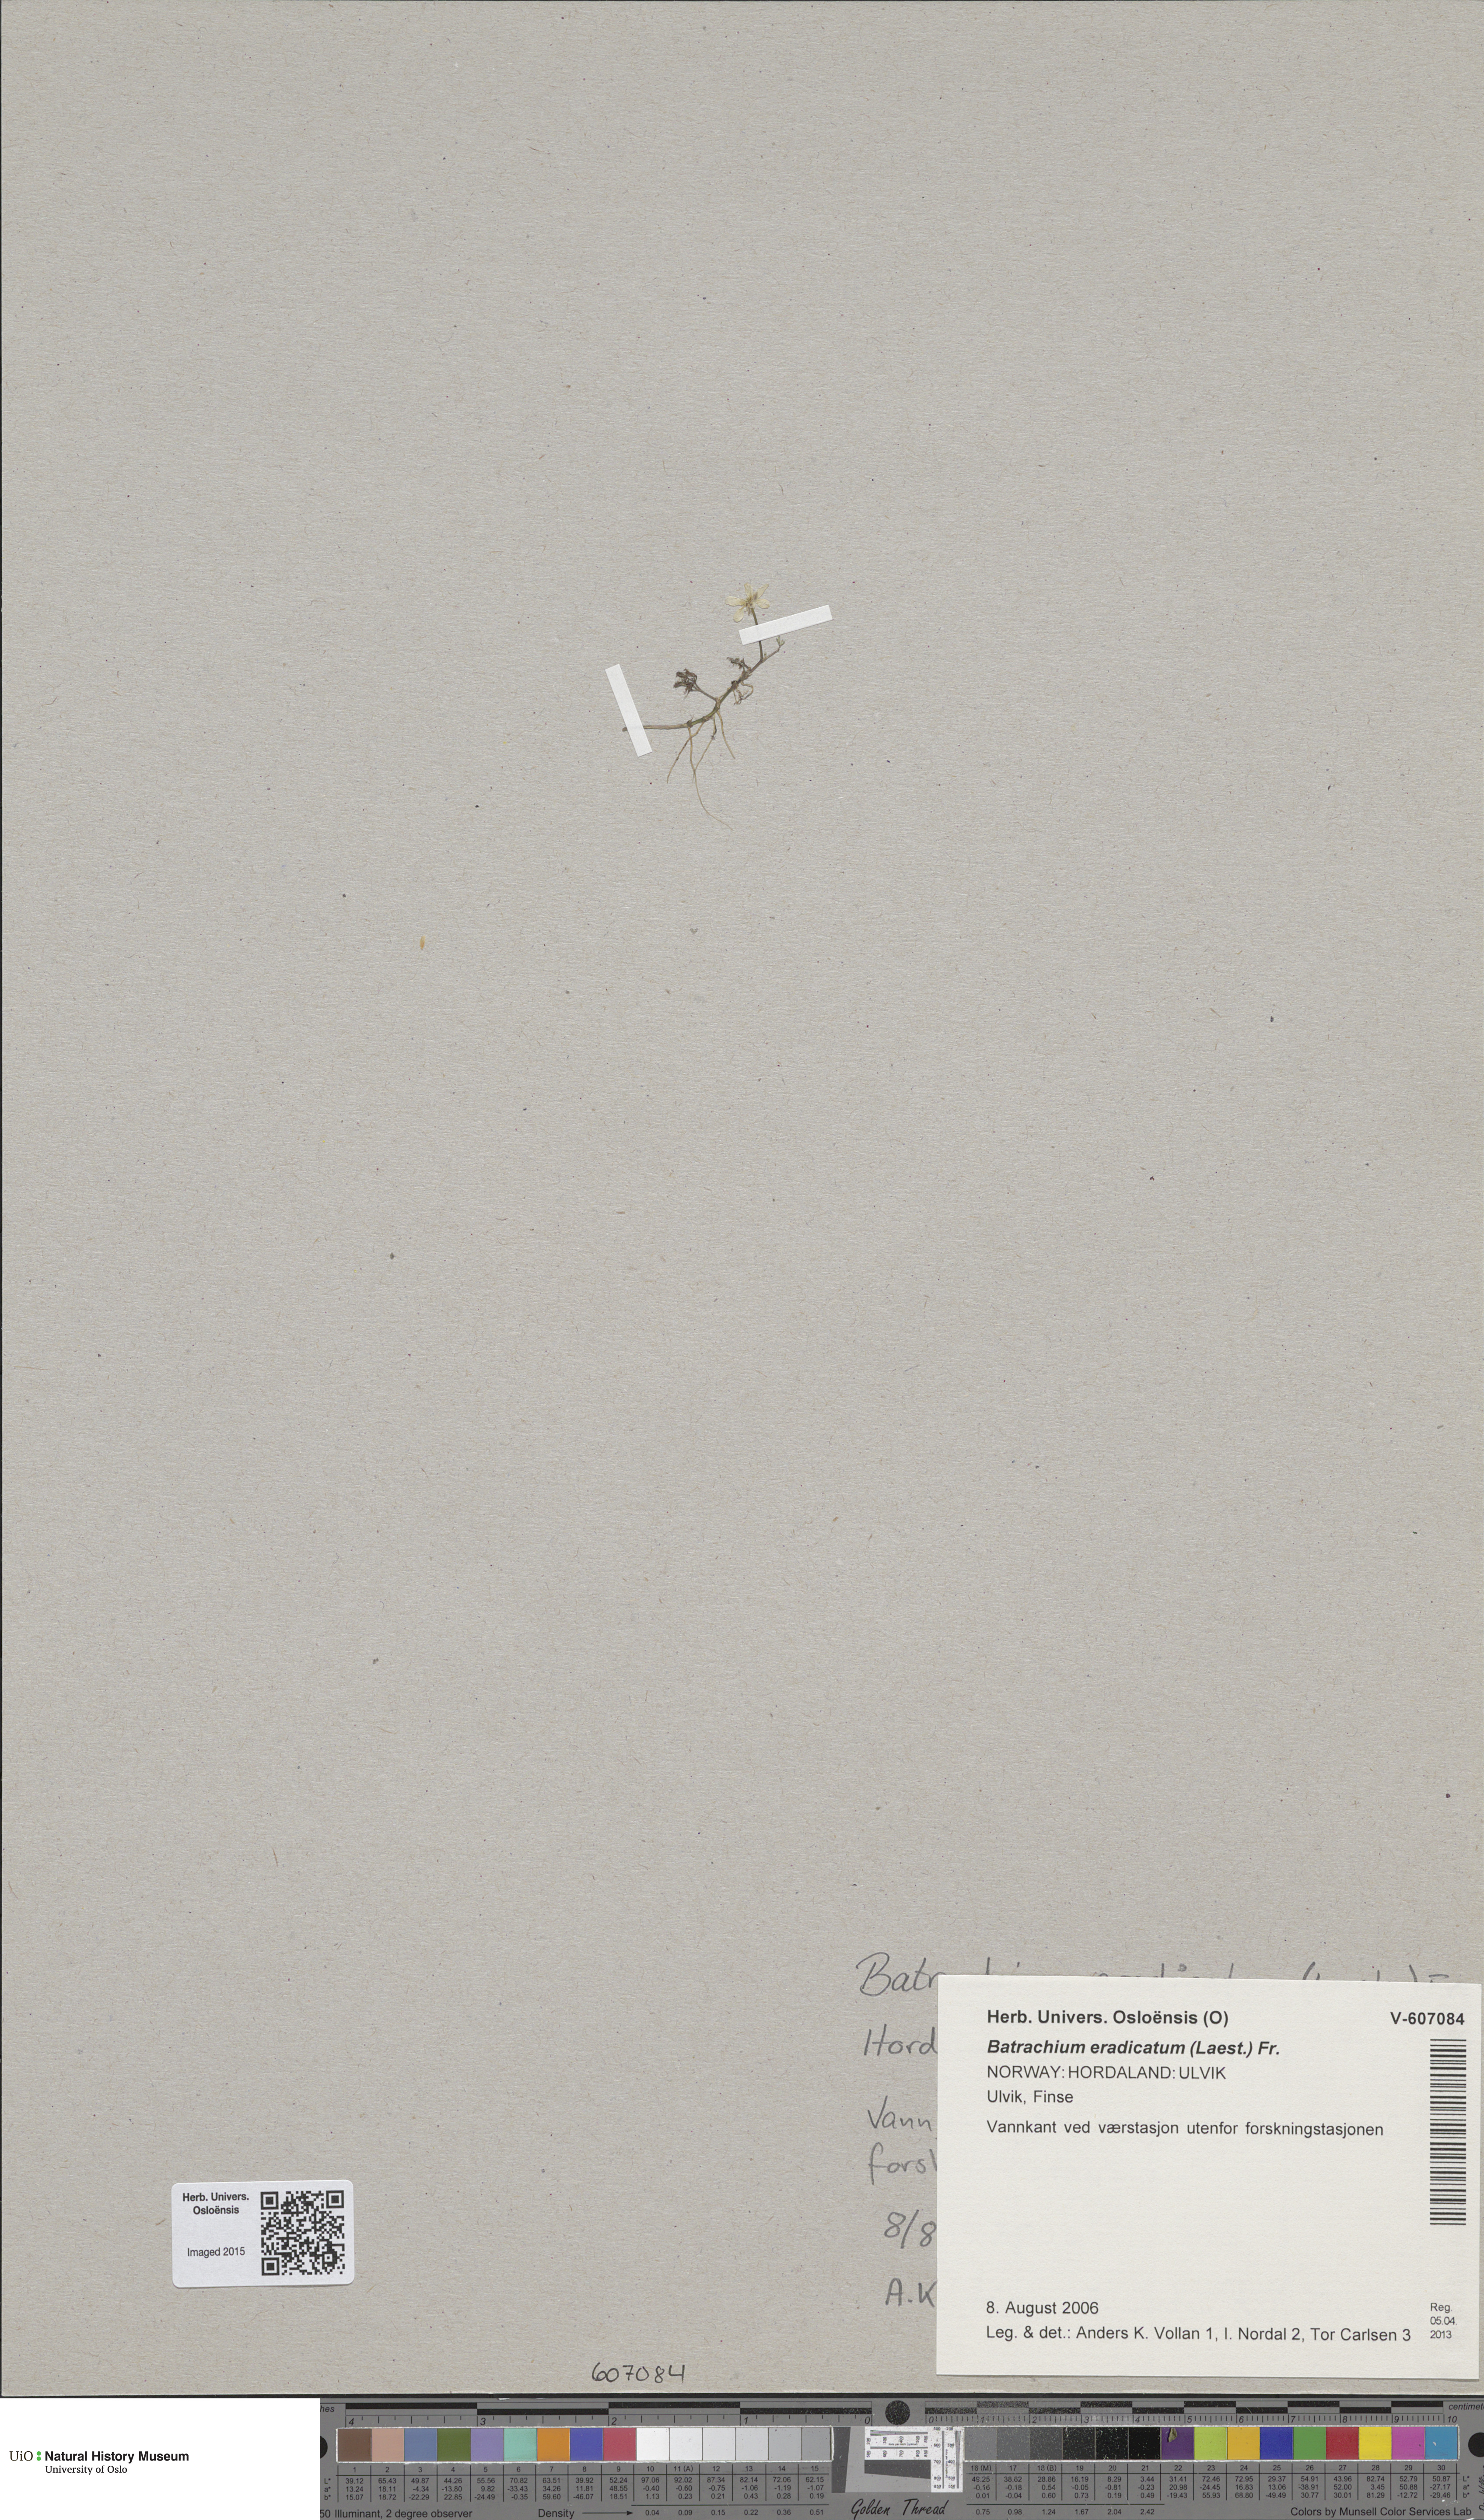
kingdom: Plantae
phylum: Tracheophyta
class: Magnoliopsida
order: Ranunculales
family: Ranunculaceae
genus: Ranunculus
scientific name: Ranunculus confervoides
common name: Delicate buttercup
